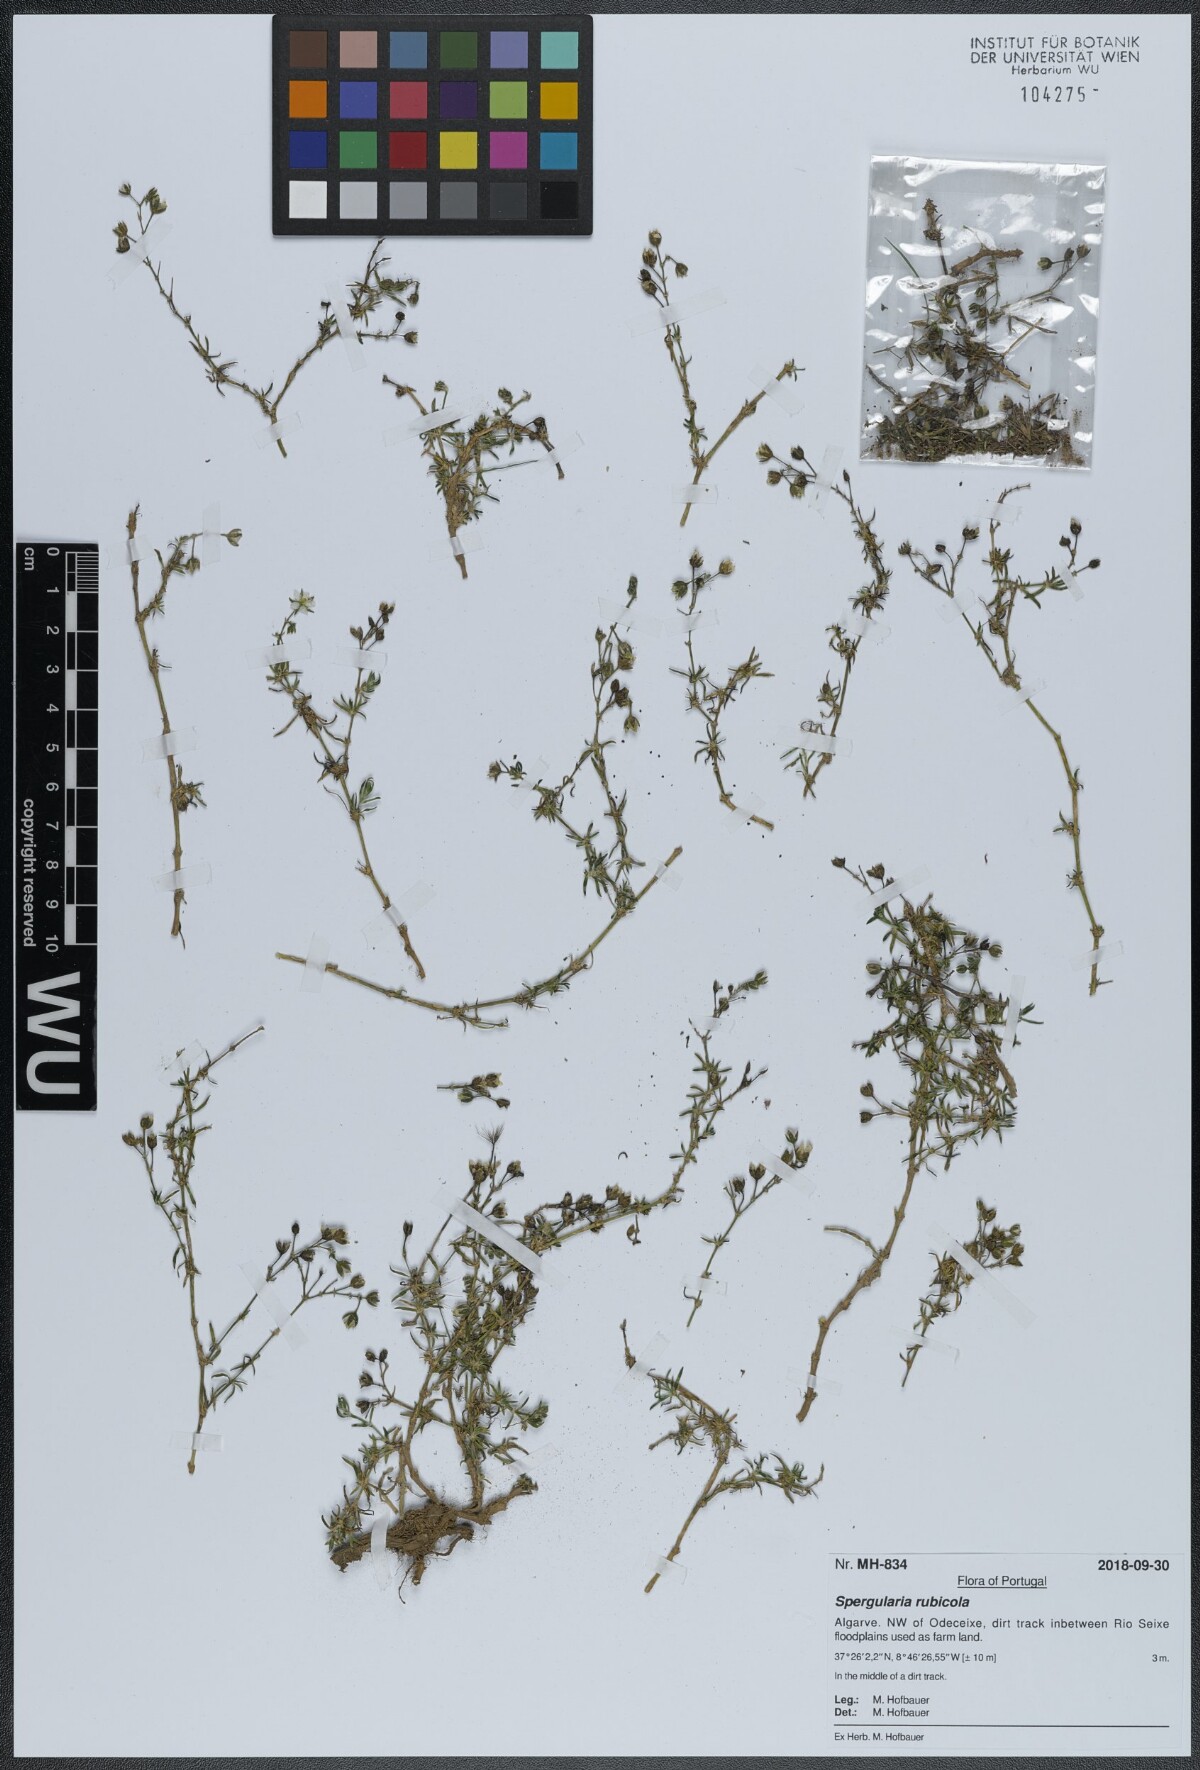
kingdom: Plantae
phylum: Tracheophyta
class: Magnoliopsida
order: Caryophyllales
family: Caryophyllaceae
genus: Spergularia
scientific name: Spergularia rupicola
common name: Cliff sand-spurrey
